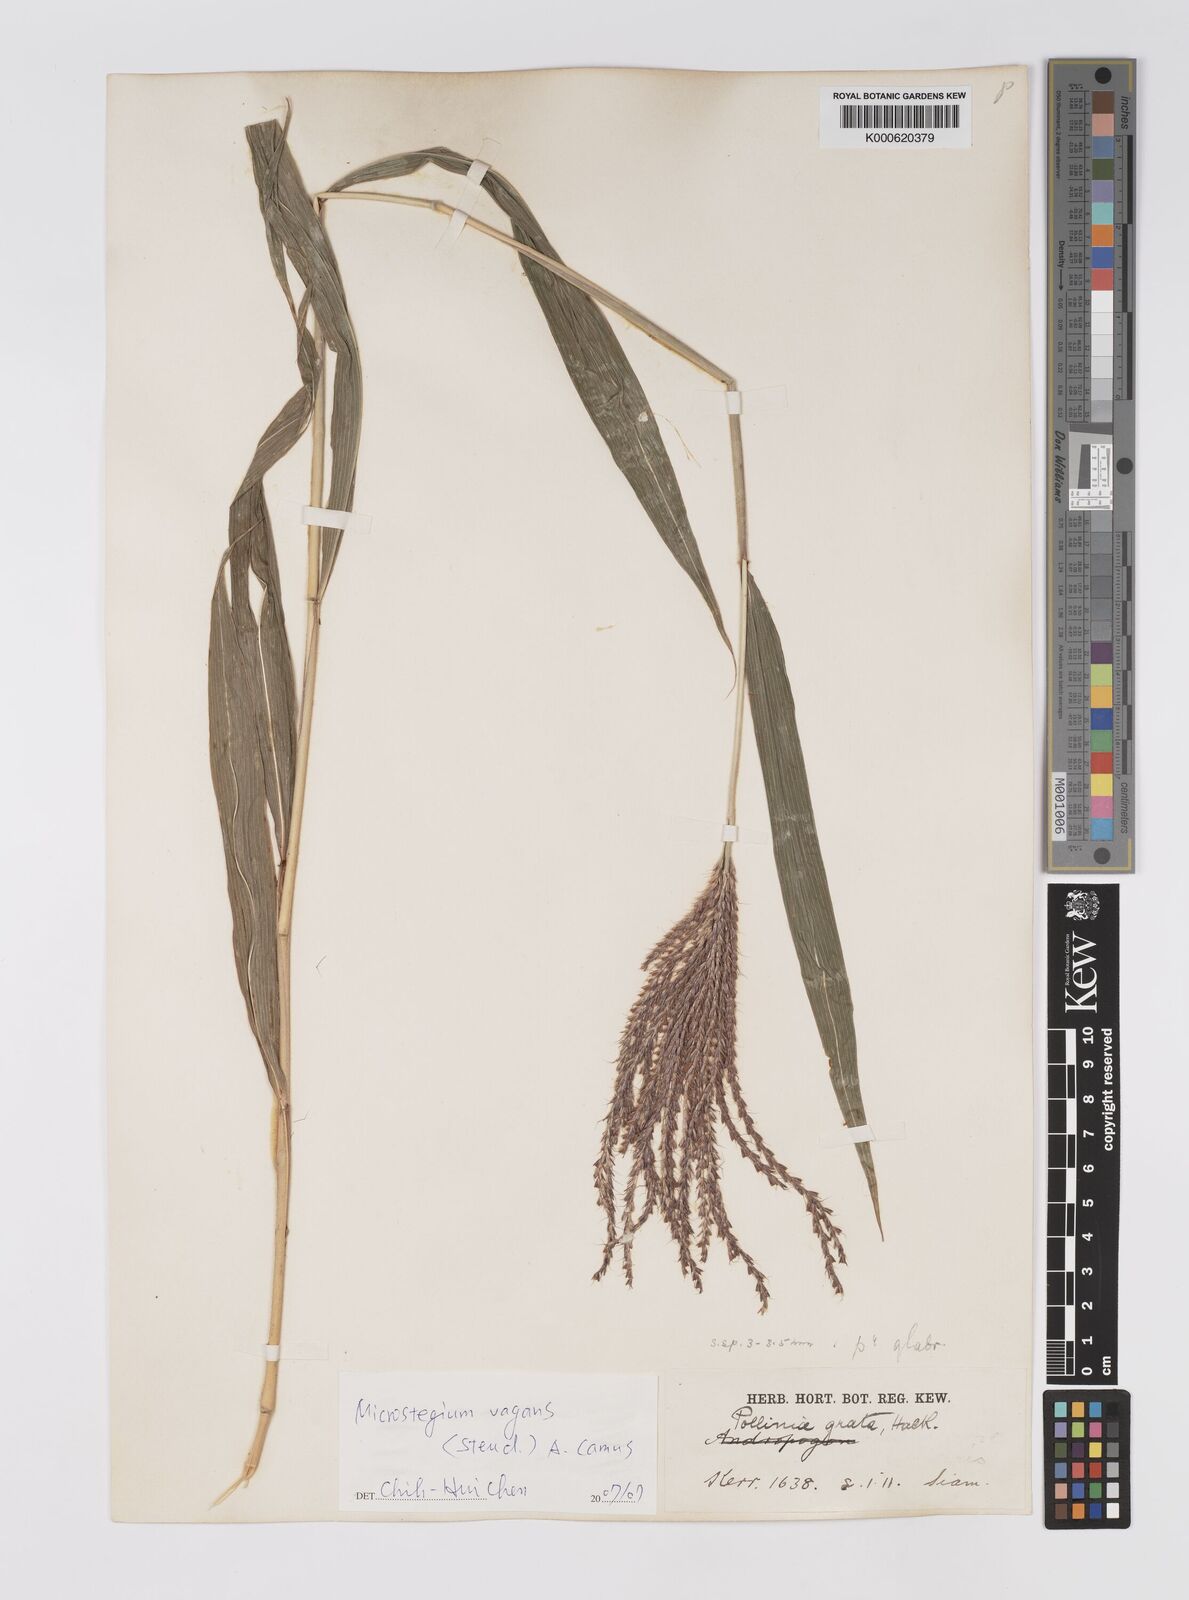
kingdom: Plantae
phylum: Tracheophyta
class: Liliopsida
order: Poales
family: Poaceae
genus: Microstegium
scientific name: Microstegium fasciculatum
